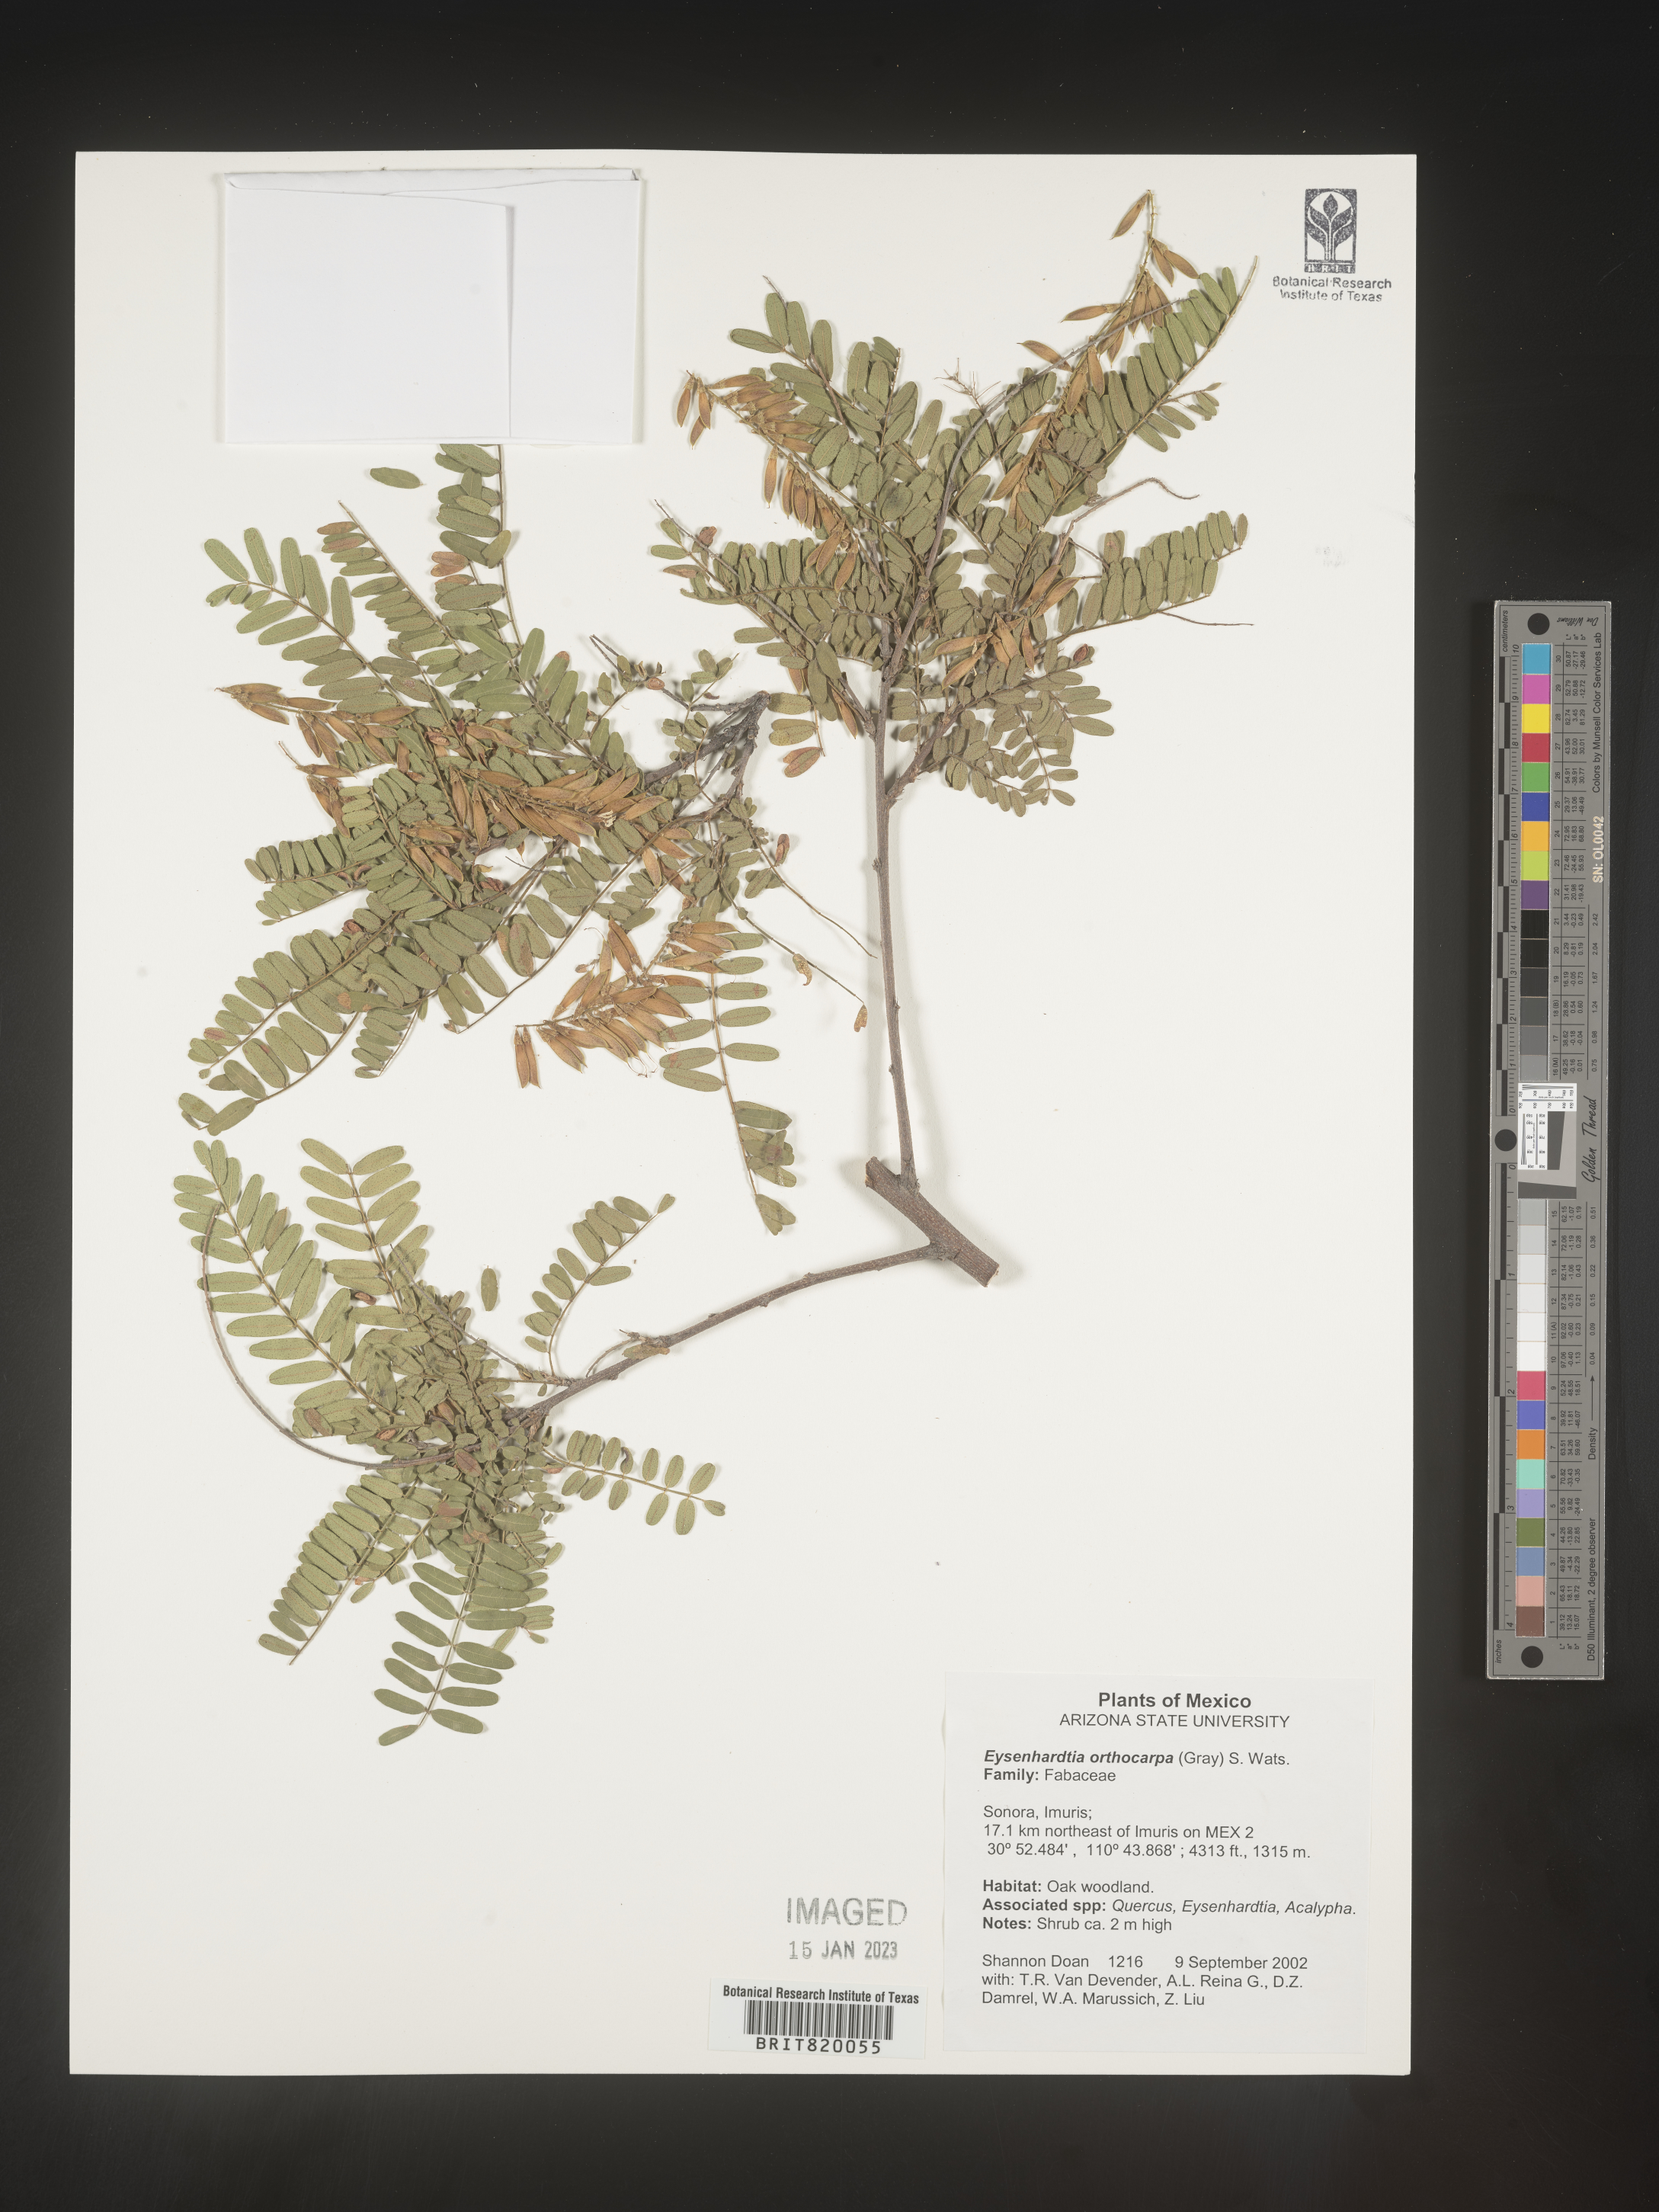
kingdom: Plantae
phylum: Tracheophyta
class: Magnoliopsida
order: Fabales
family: Fabaceae
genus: Eysenhardtia
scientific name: Eysenhardtia
